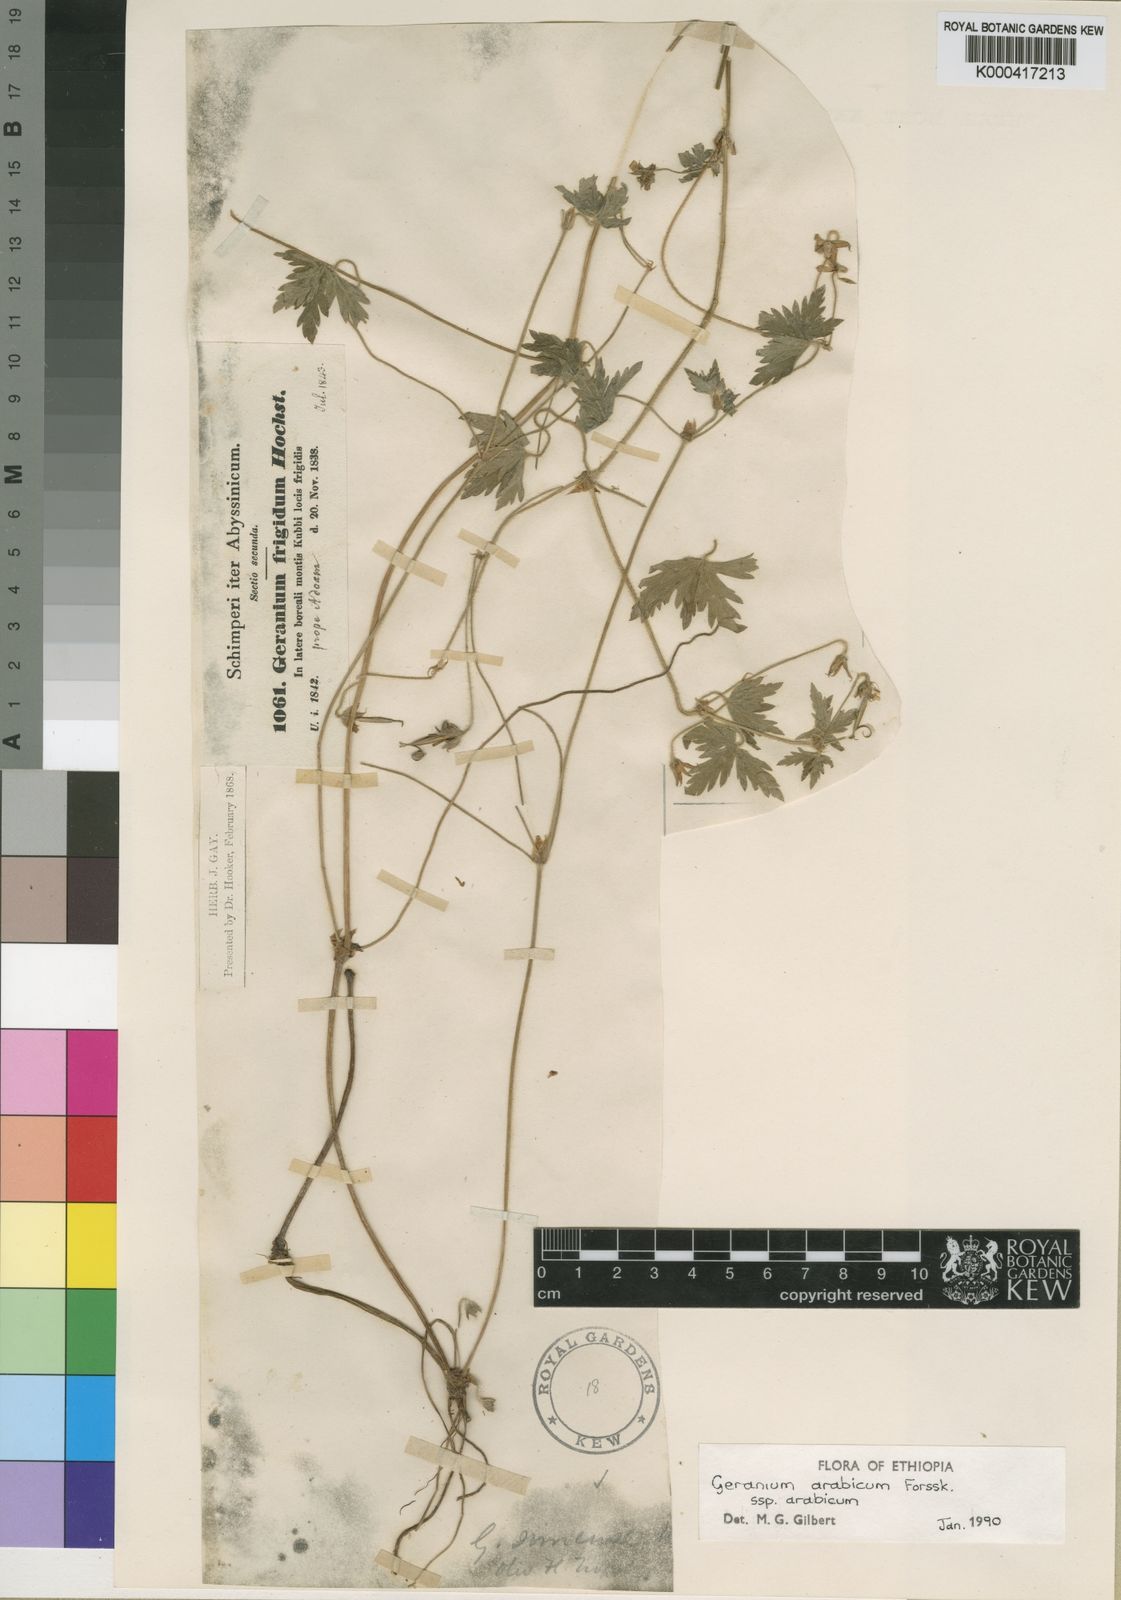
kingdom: Plantae
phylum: Tracheophyta
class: Magnoliopsida
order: Geraniales
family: Geraniaceae
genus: Geranium
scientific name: Geranium arabicum
